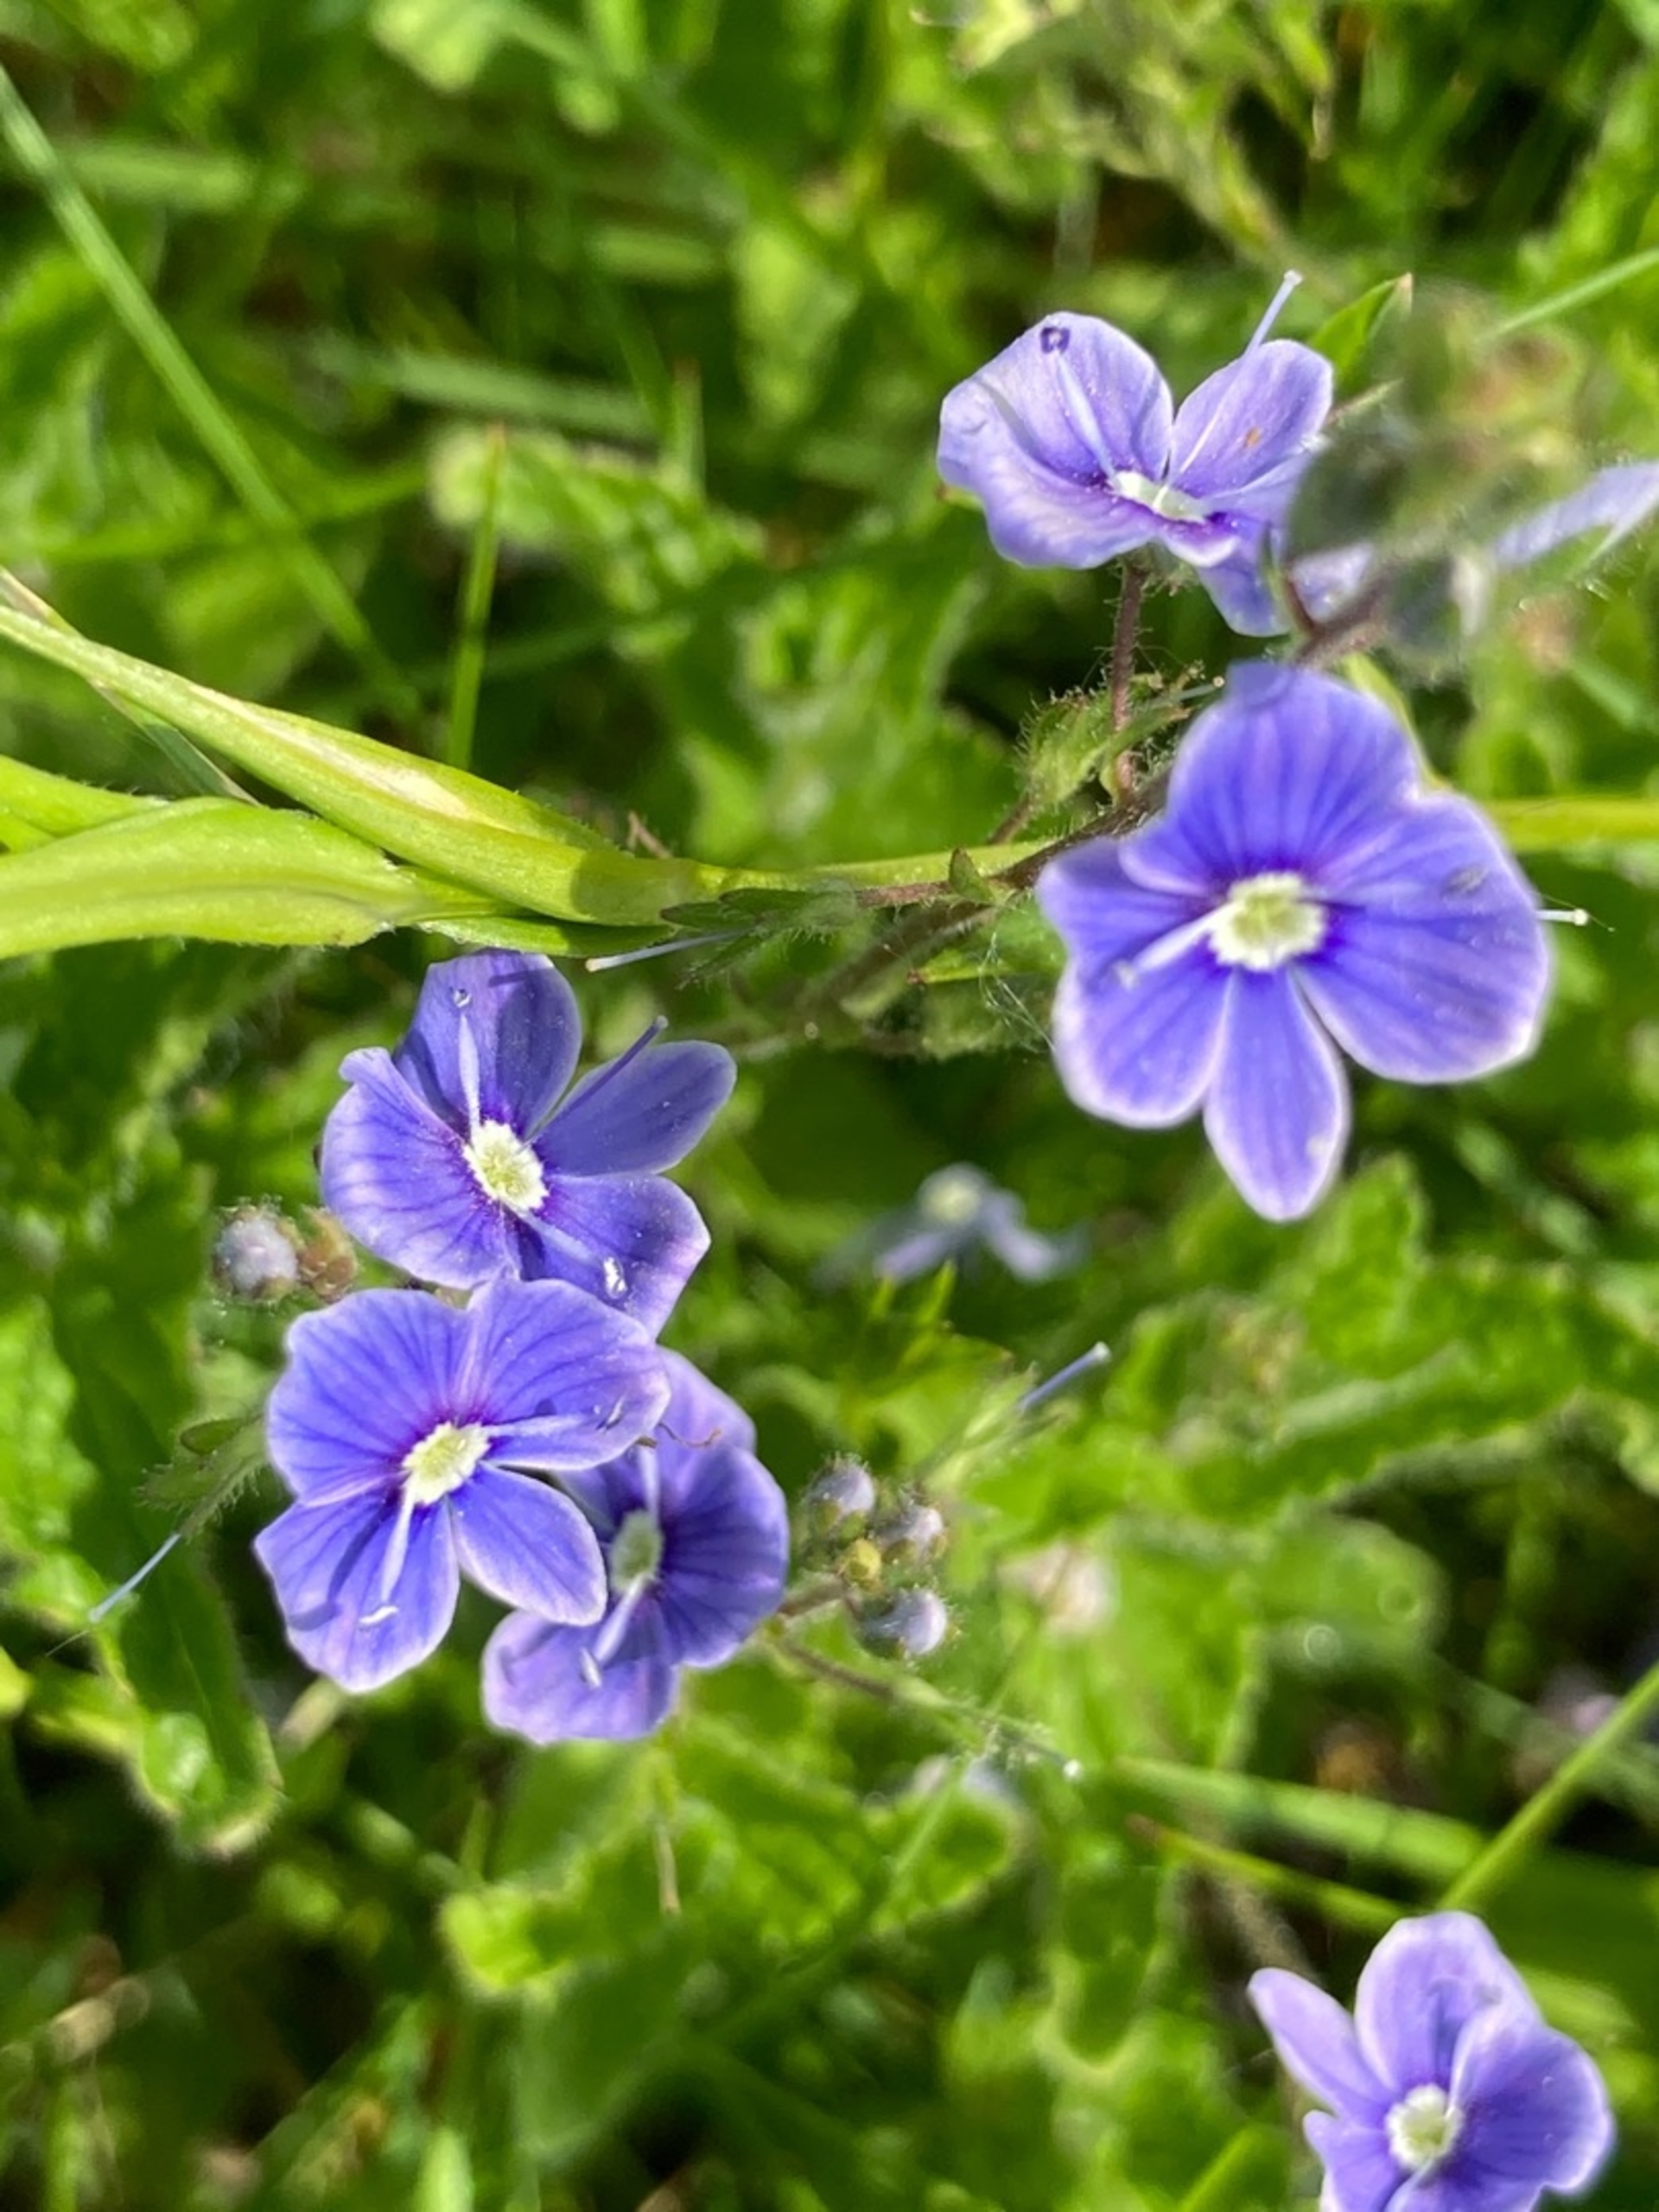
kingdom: Plantae
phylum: Tracheophyta
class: Magnoliopsida
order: Lamiales
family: Plantaginaceae
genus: Veronica
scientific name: Veronica chamaedrys
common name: Tveskægget ærenpris
